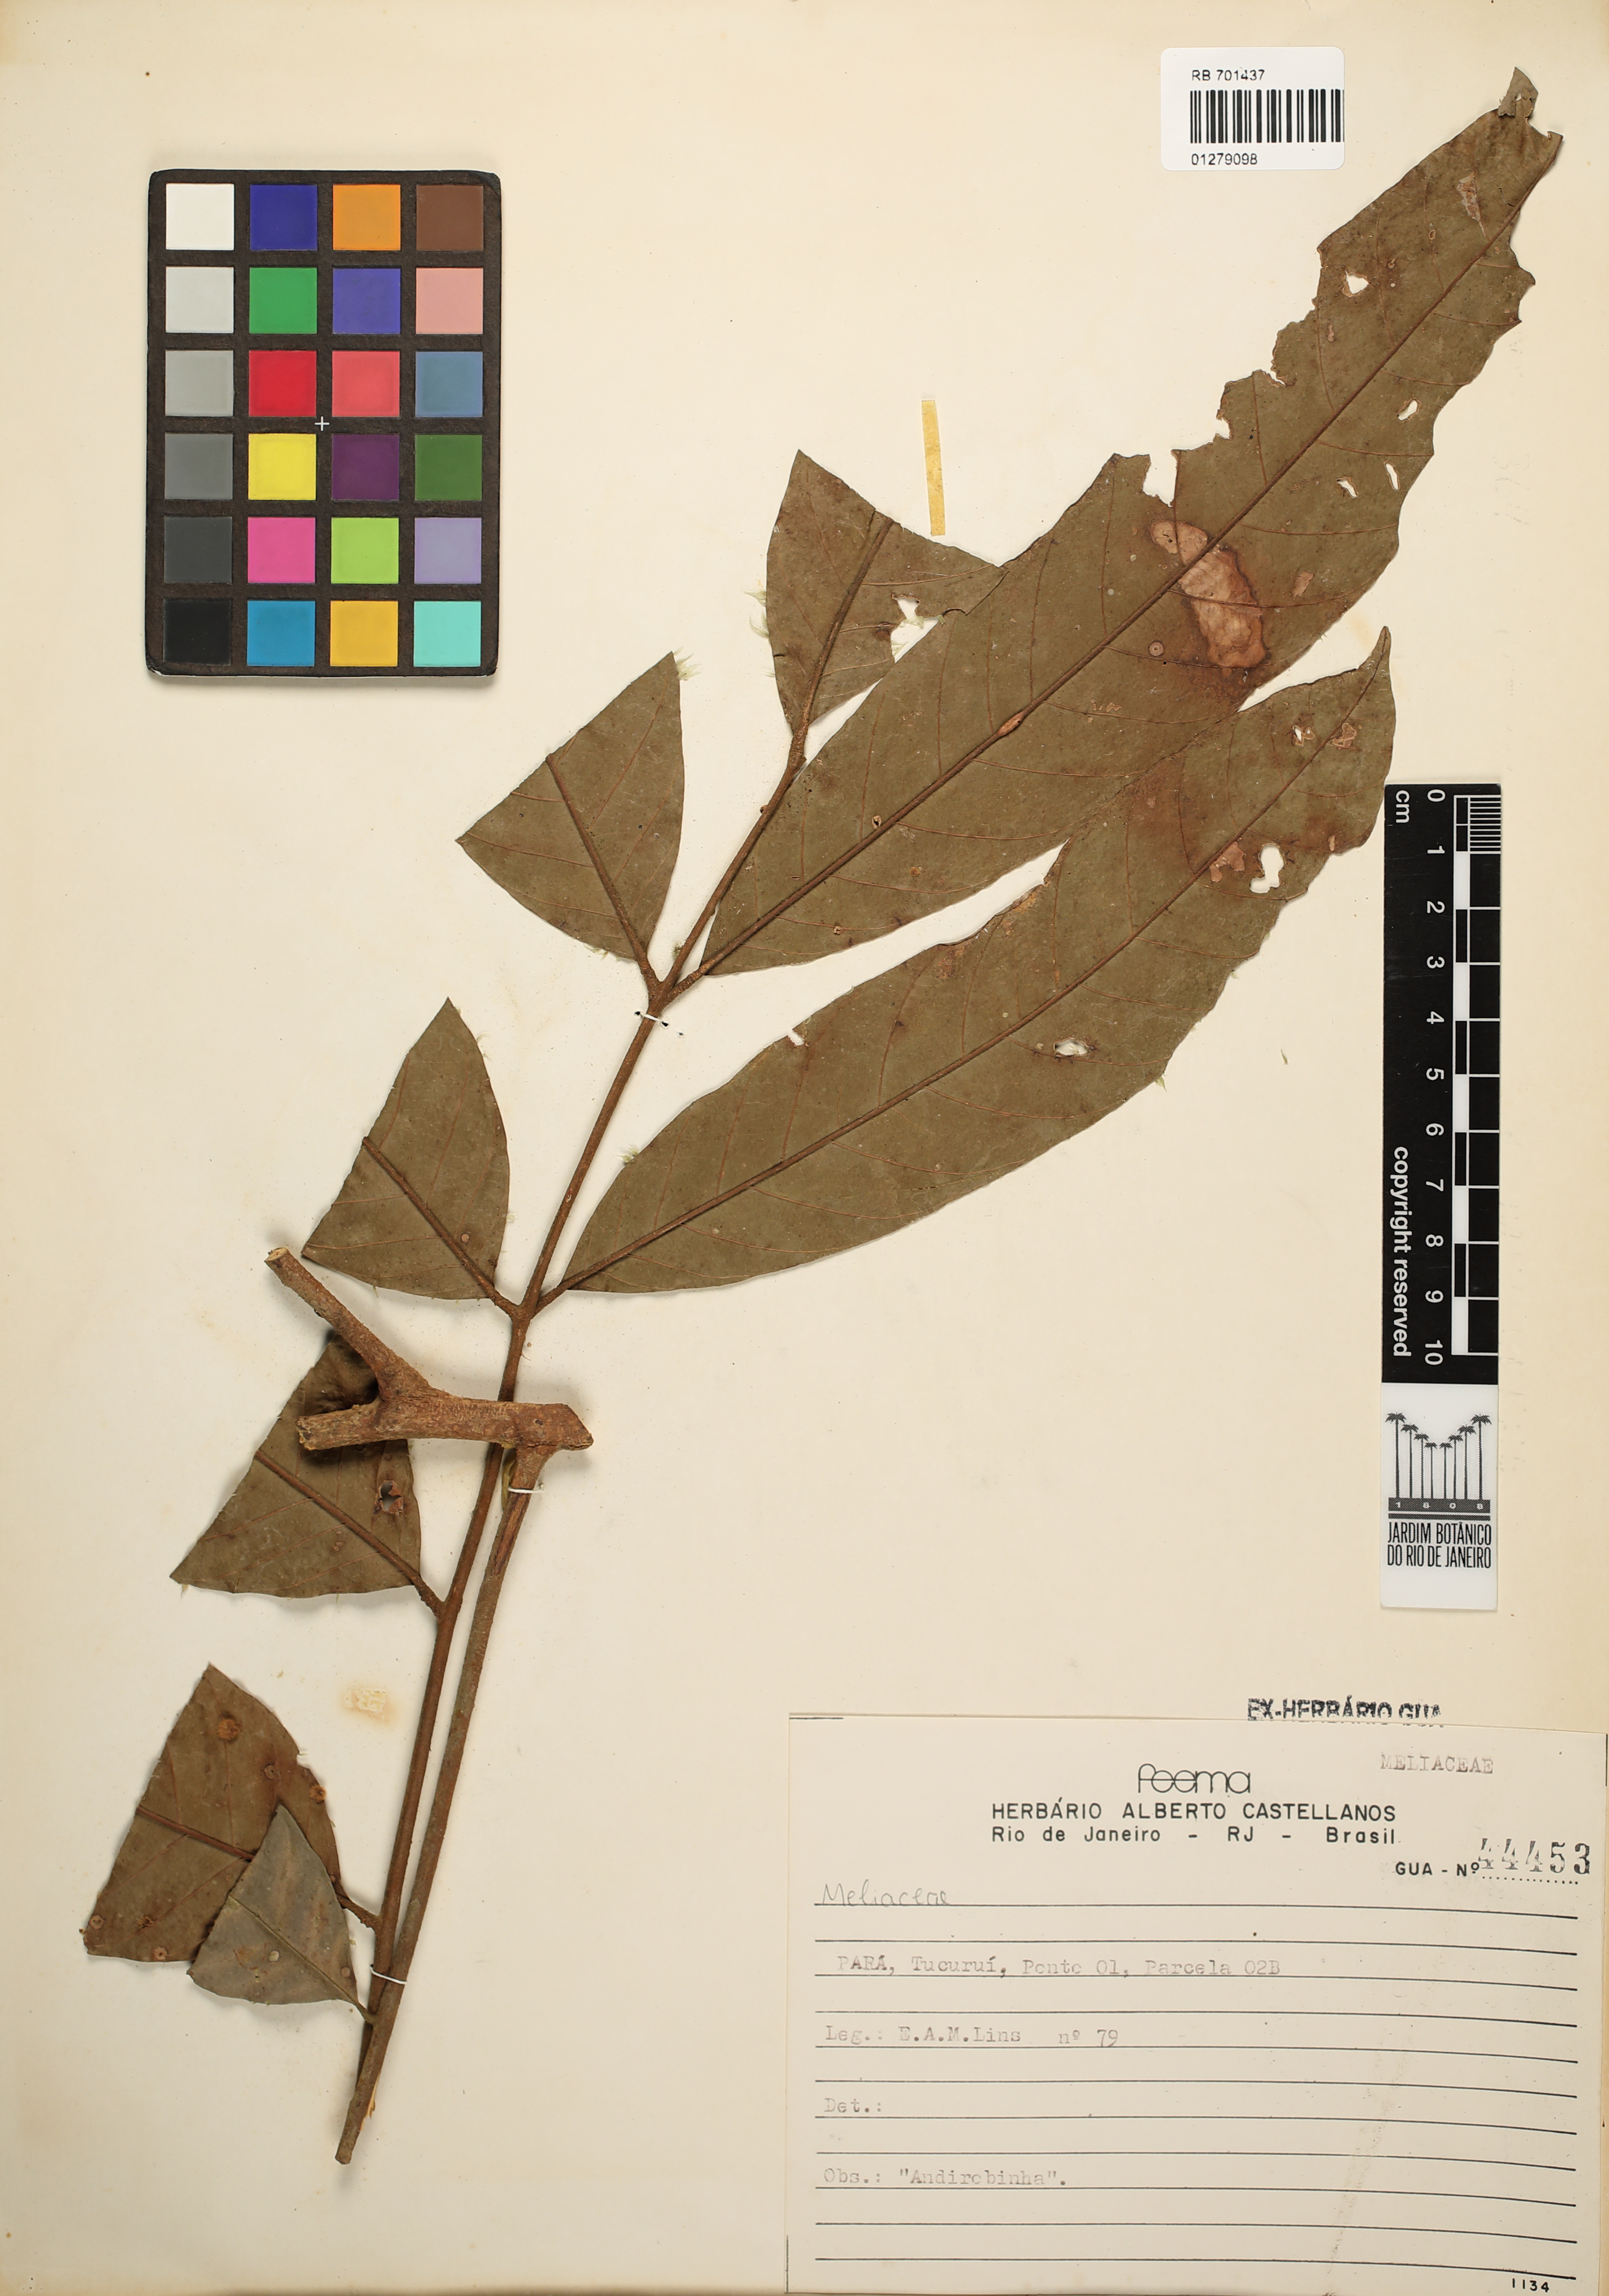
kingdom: Plantae
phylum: Tracheophyta
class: Magnoliopsida
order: Sapindales
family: Meliaceae
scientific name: Meliaceae
